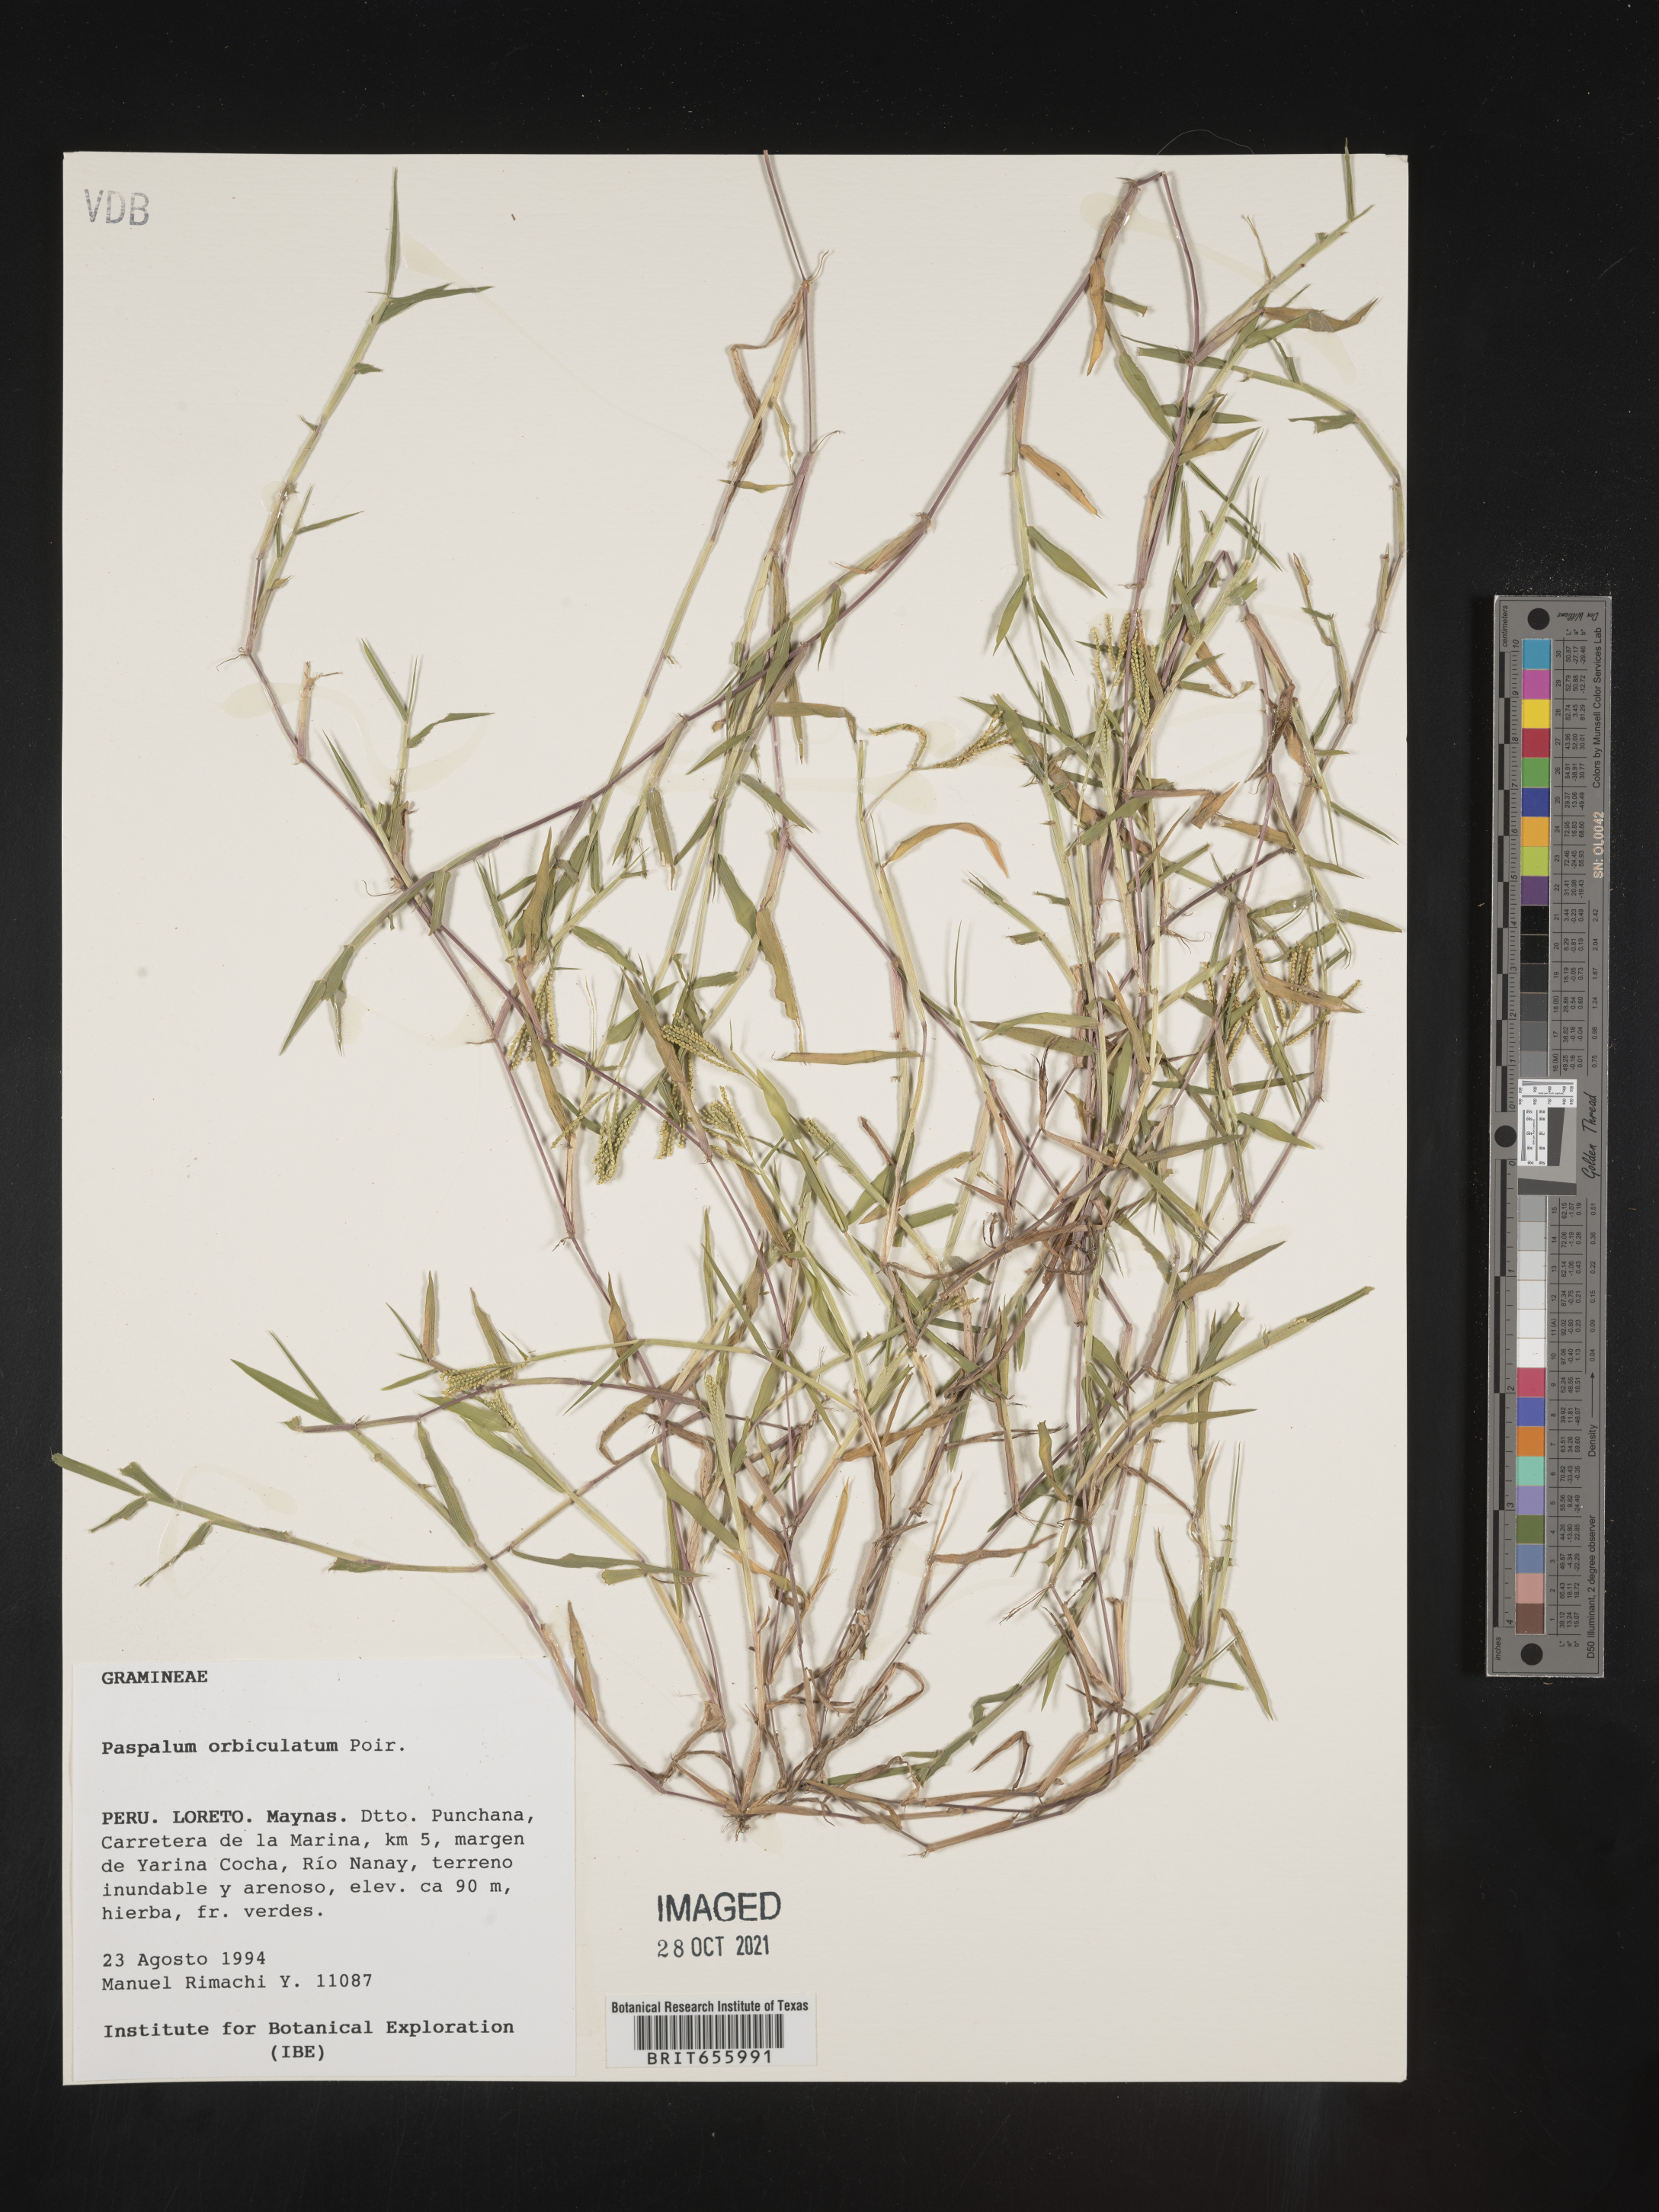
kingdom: Plantae
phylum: Tracheophyta
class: Liliopsida
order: Poales
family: Poaceae
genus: Paspalum
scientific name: Paspalum
